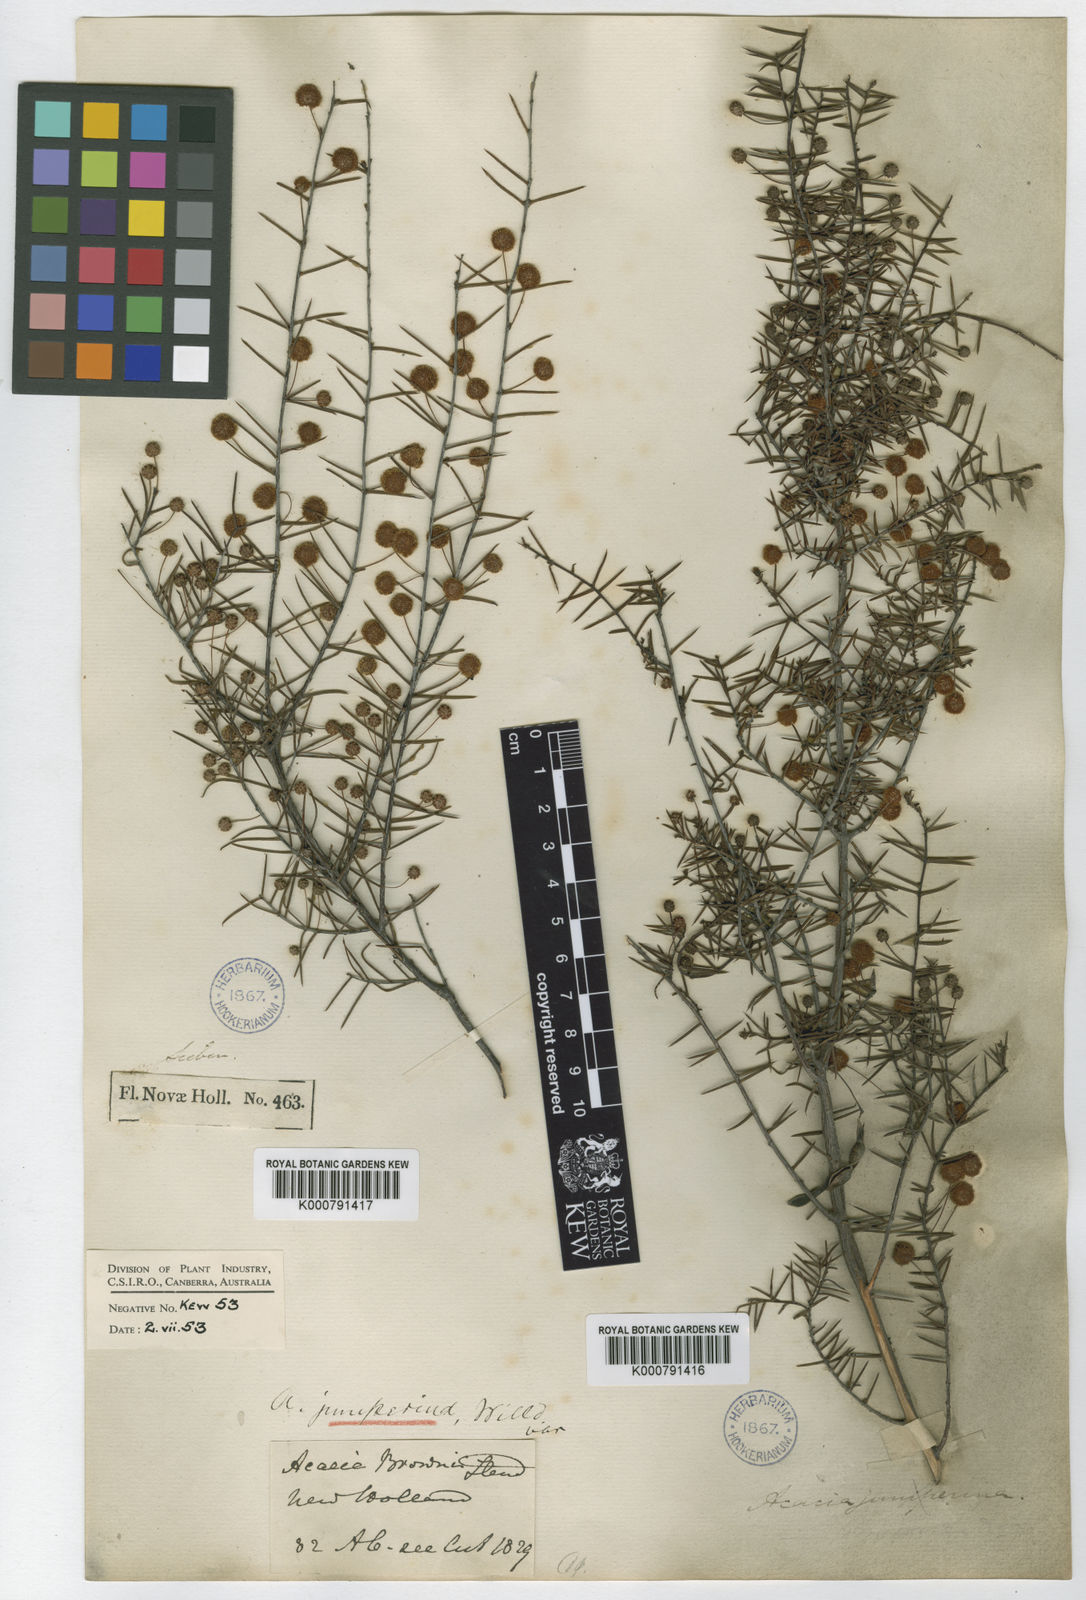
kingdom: Plantae
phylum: Tracheophyta
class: Magnoliopsida
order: Fabales
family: Fabaceae
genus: Acacia
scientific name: Acacia brownii
